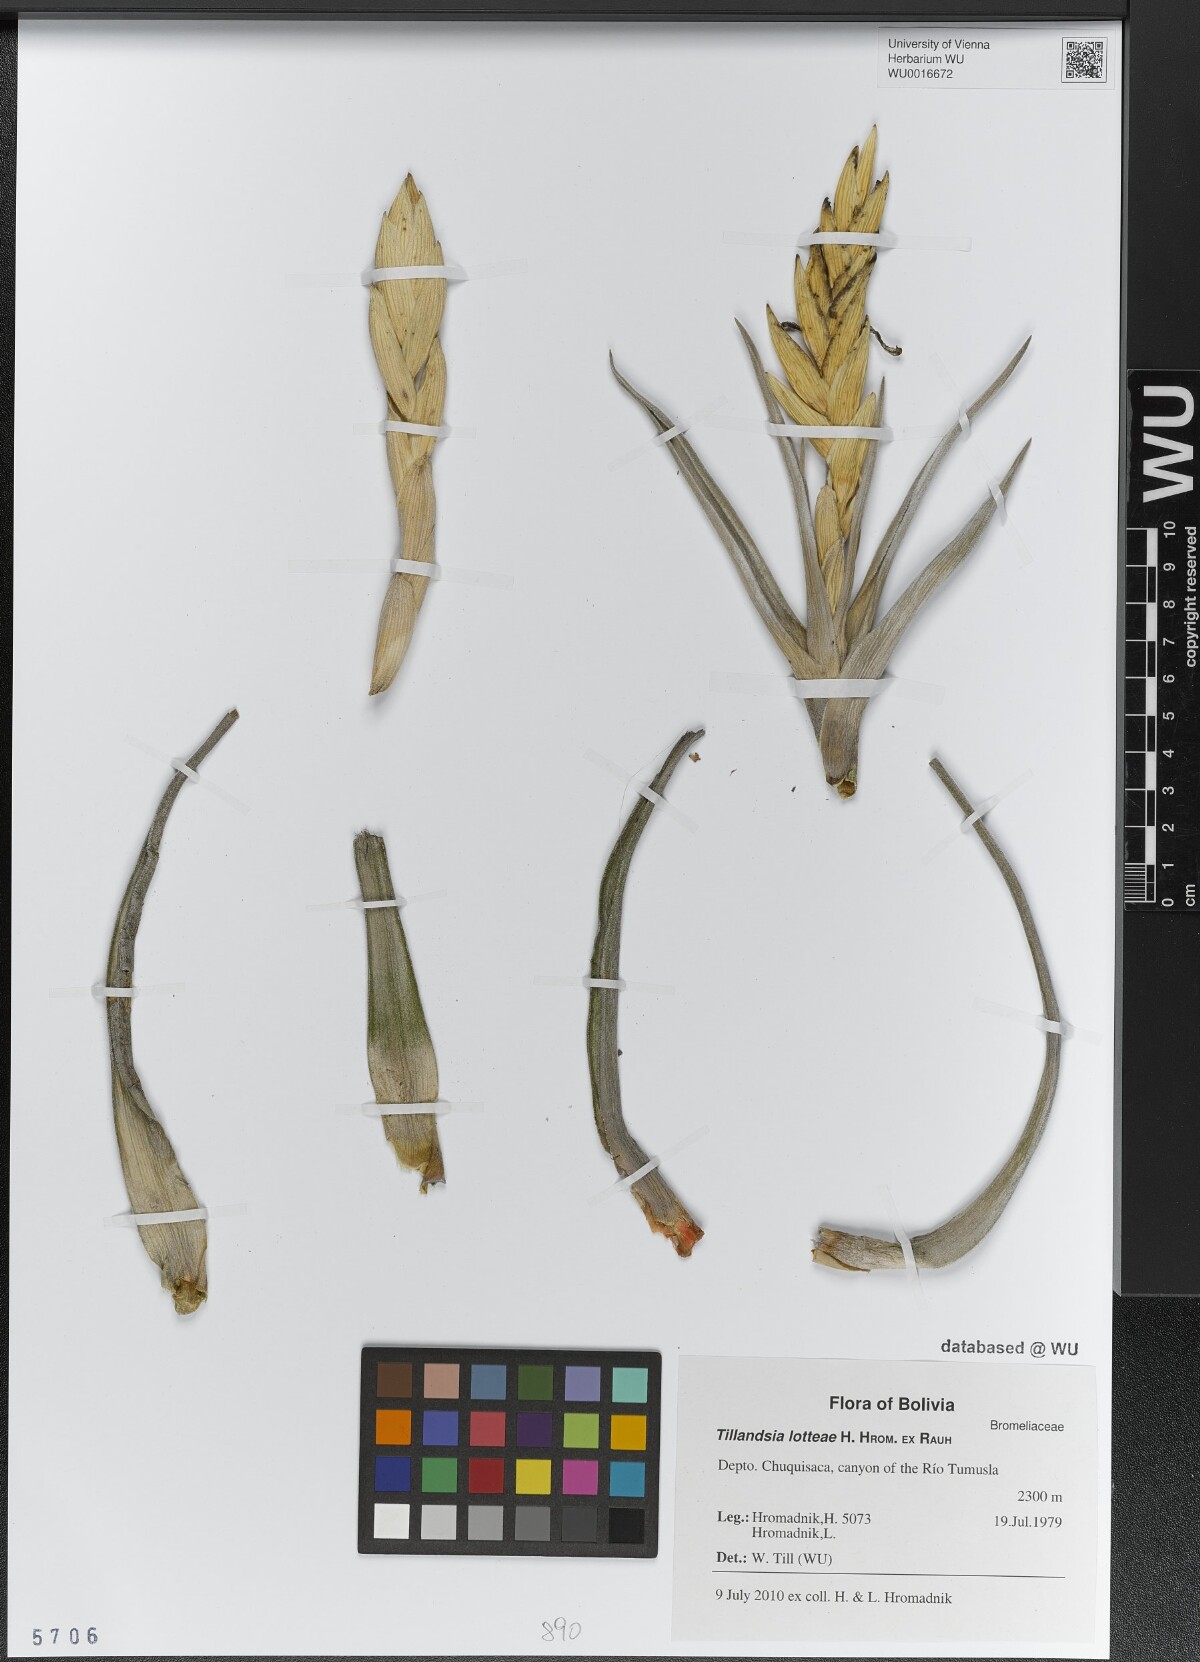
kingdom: Plantae
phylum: Tracheophyta
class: Liliopsida
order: Poales
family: Bromeliaceae
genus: Tillandsia
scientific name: Tillandsia lotteae
